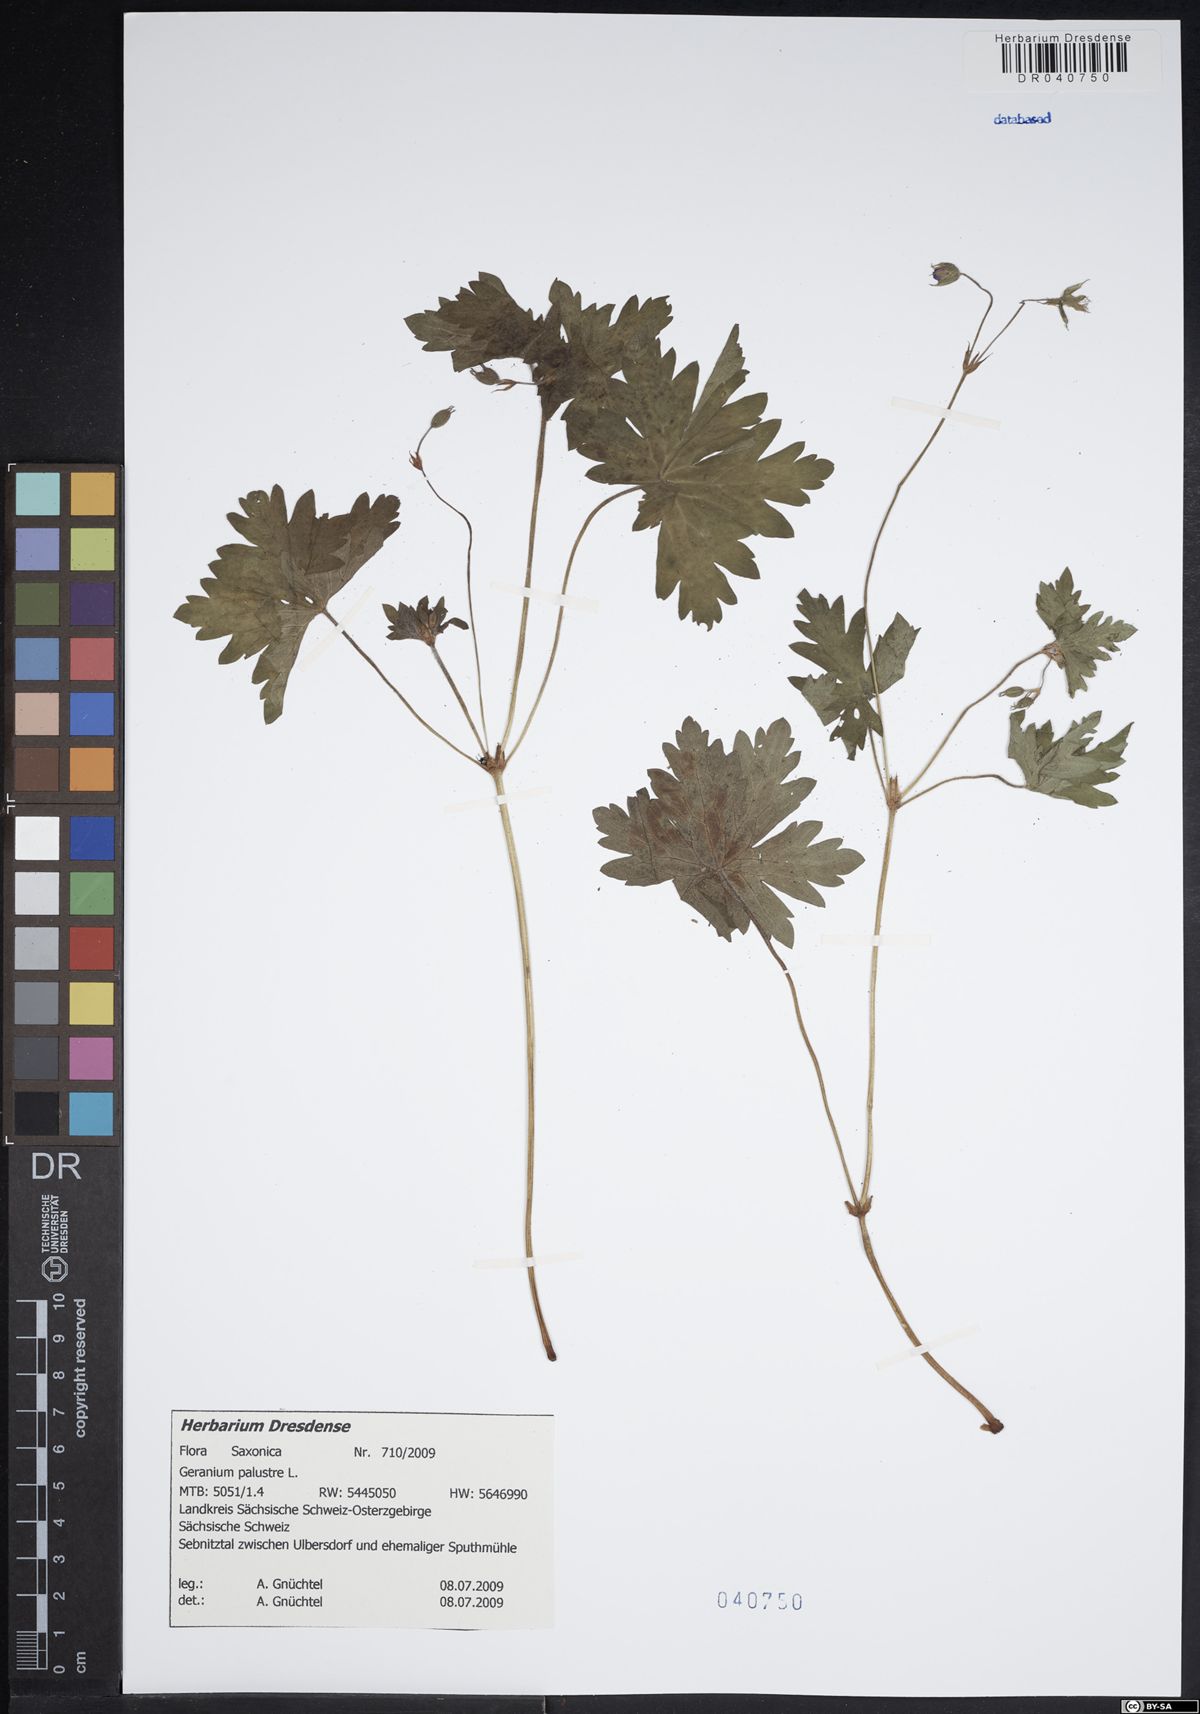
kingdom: Plantae
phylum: Tracheophyta
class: Magnoliopsida
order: Geraniales
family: Geraniaceae
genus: Geranium
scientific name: Geranium palustre
